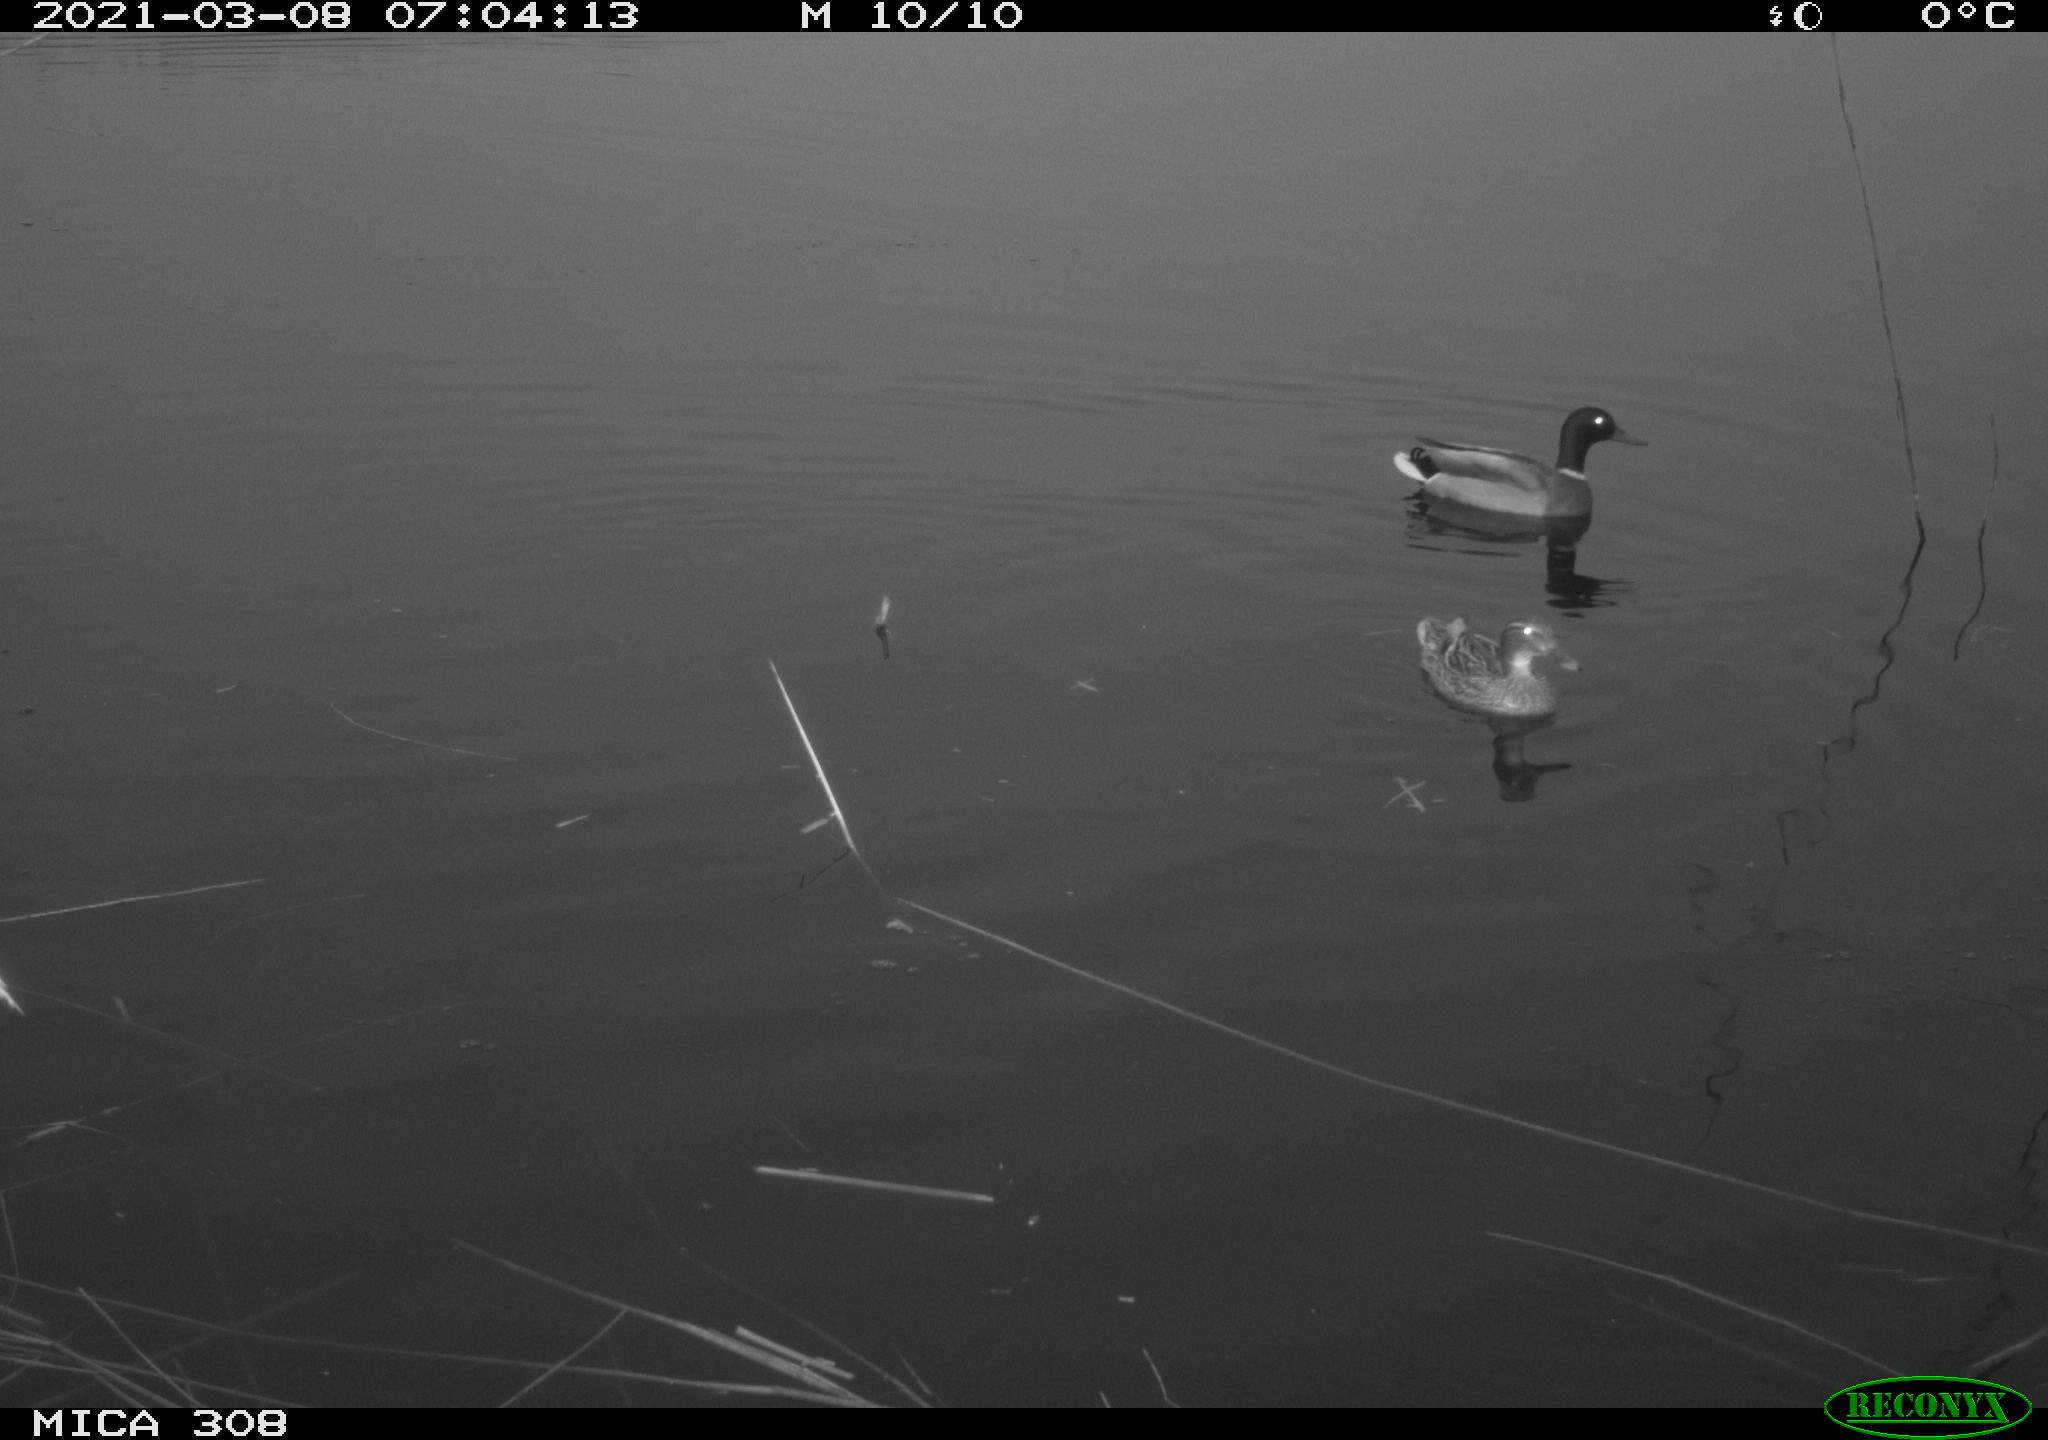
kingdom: Animalia
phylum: Chordata
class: Aves
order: Anseriformes
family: Anatidae
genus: Anas
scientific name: Anas platyrhynchos
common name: Mallard
